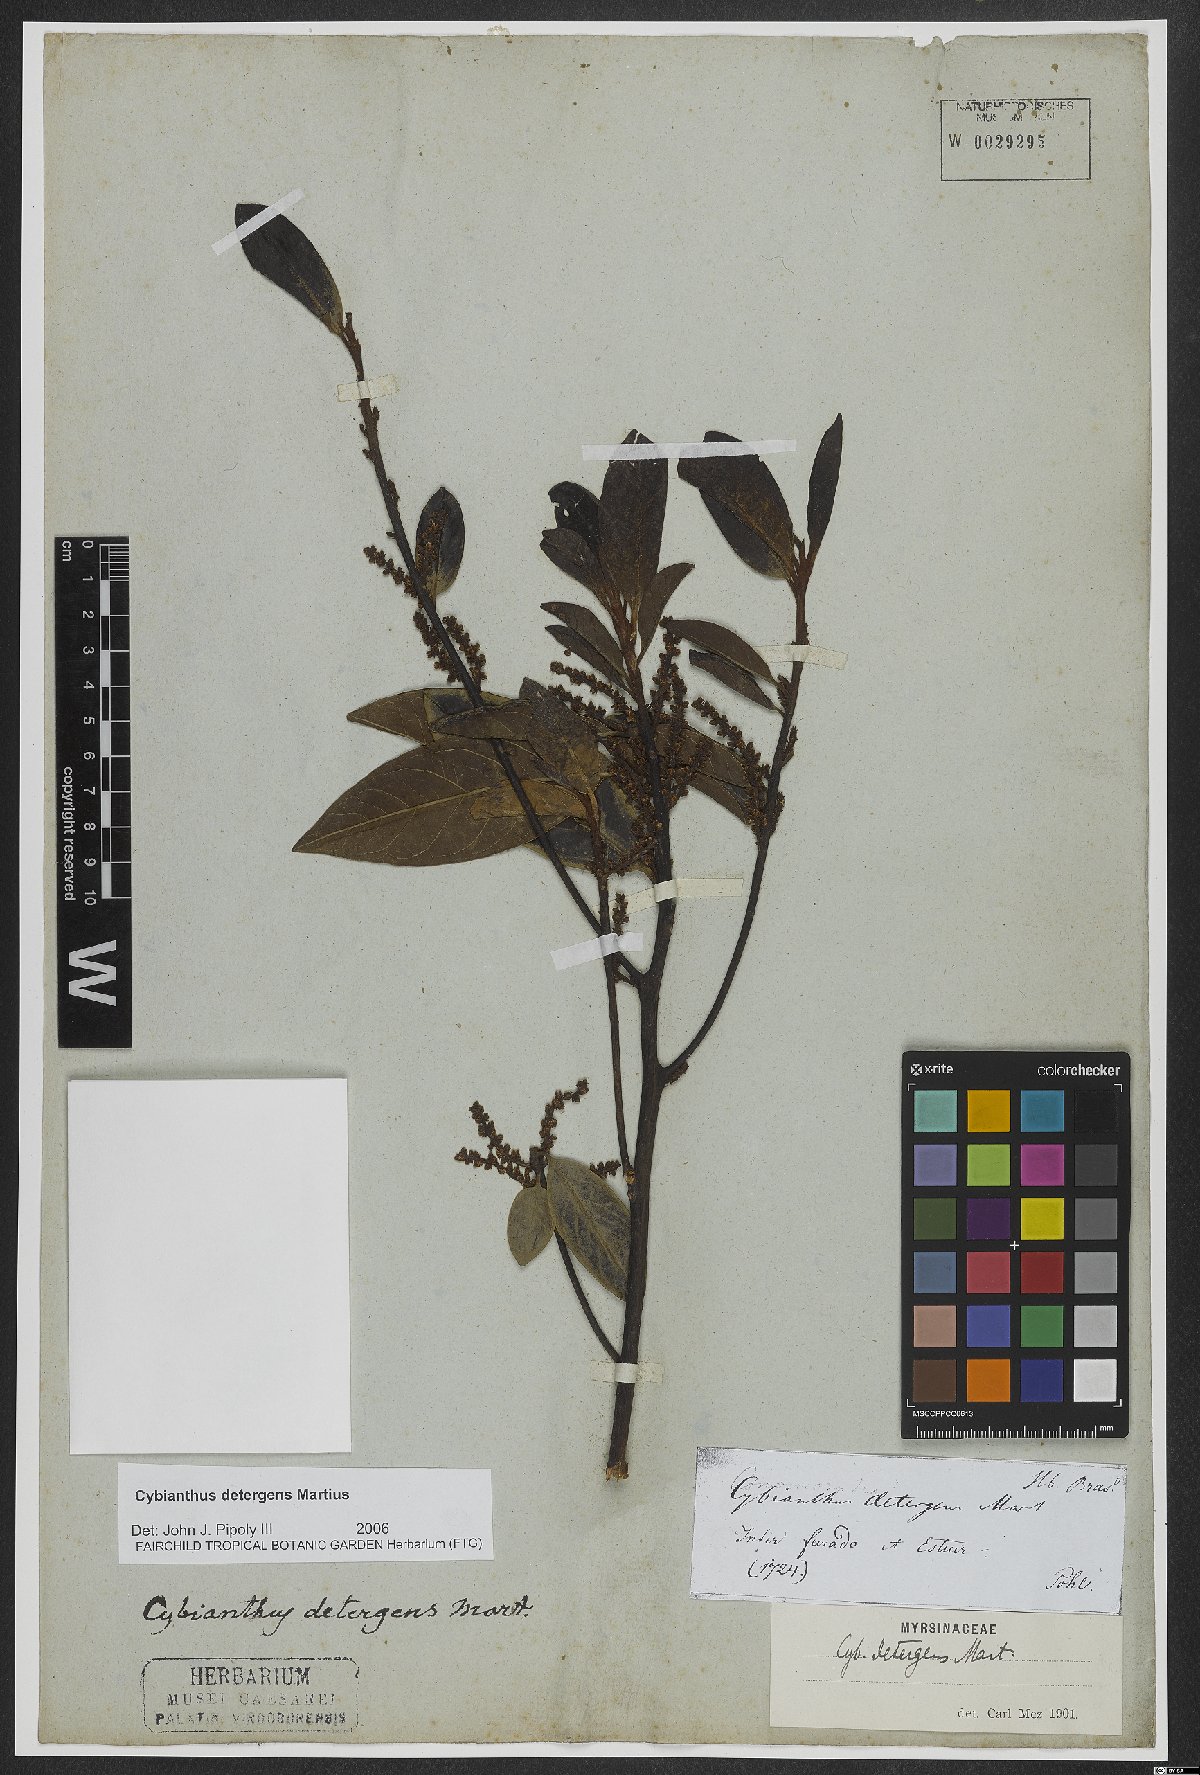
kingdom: Plantae
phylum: Tracheophyta
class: Magnoliopsida
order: Ericales
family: Primulaceae
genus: Cybianthus
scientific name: Cybianthus detergens
